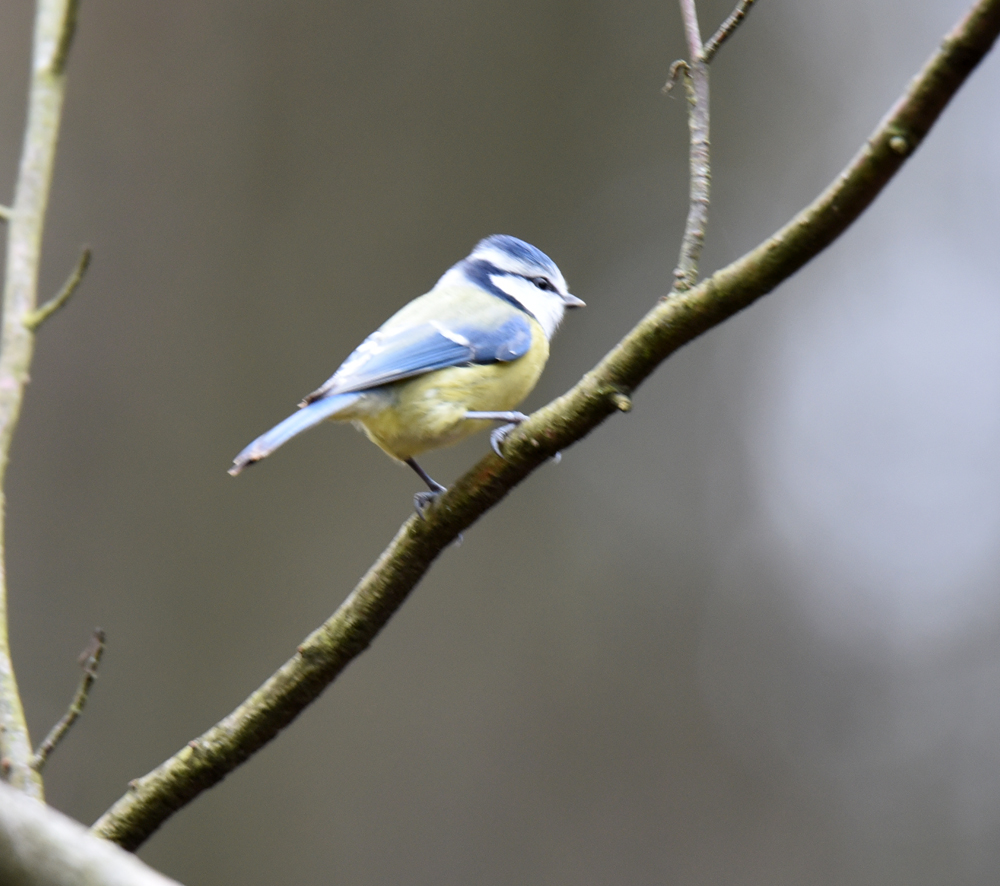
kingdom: Animalia
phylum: Chordata
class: Aves
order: Passeriformes
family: Paridae
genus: Cyanistes
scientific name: Cyanistes caeruleus
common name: Eurasian blue tit
